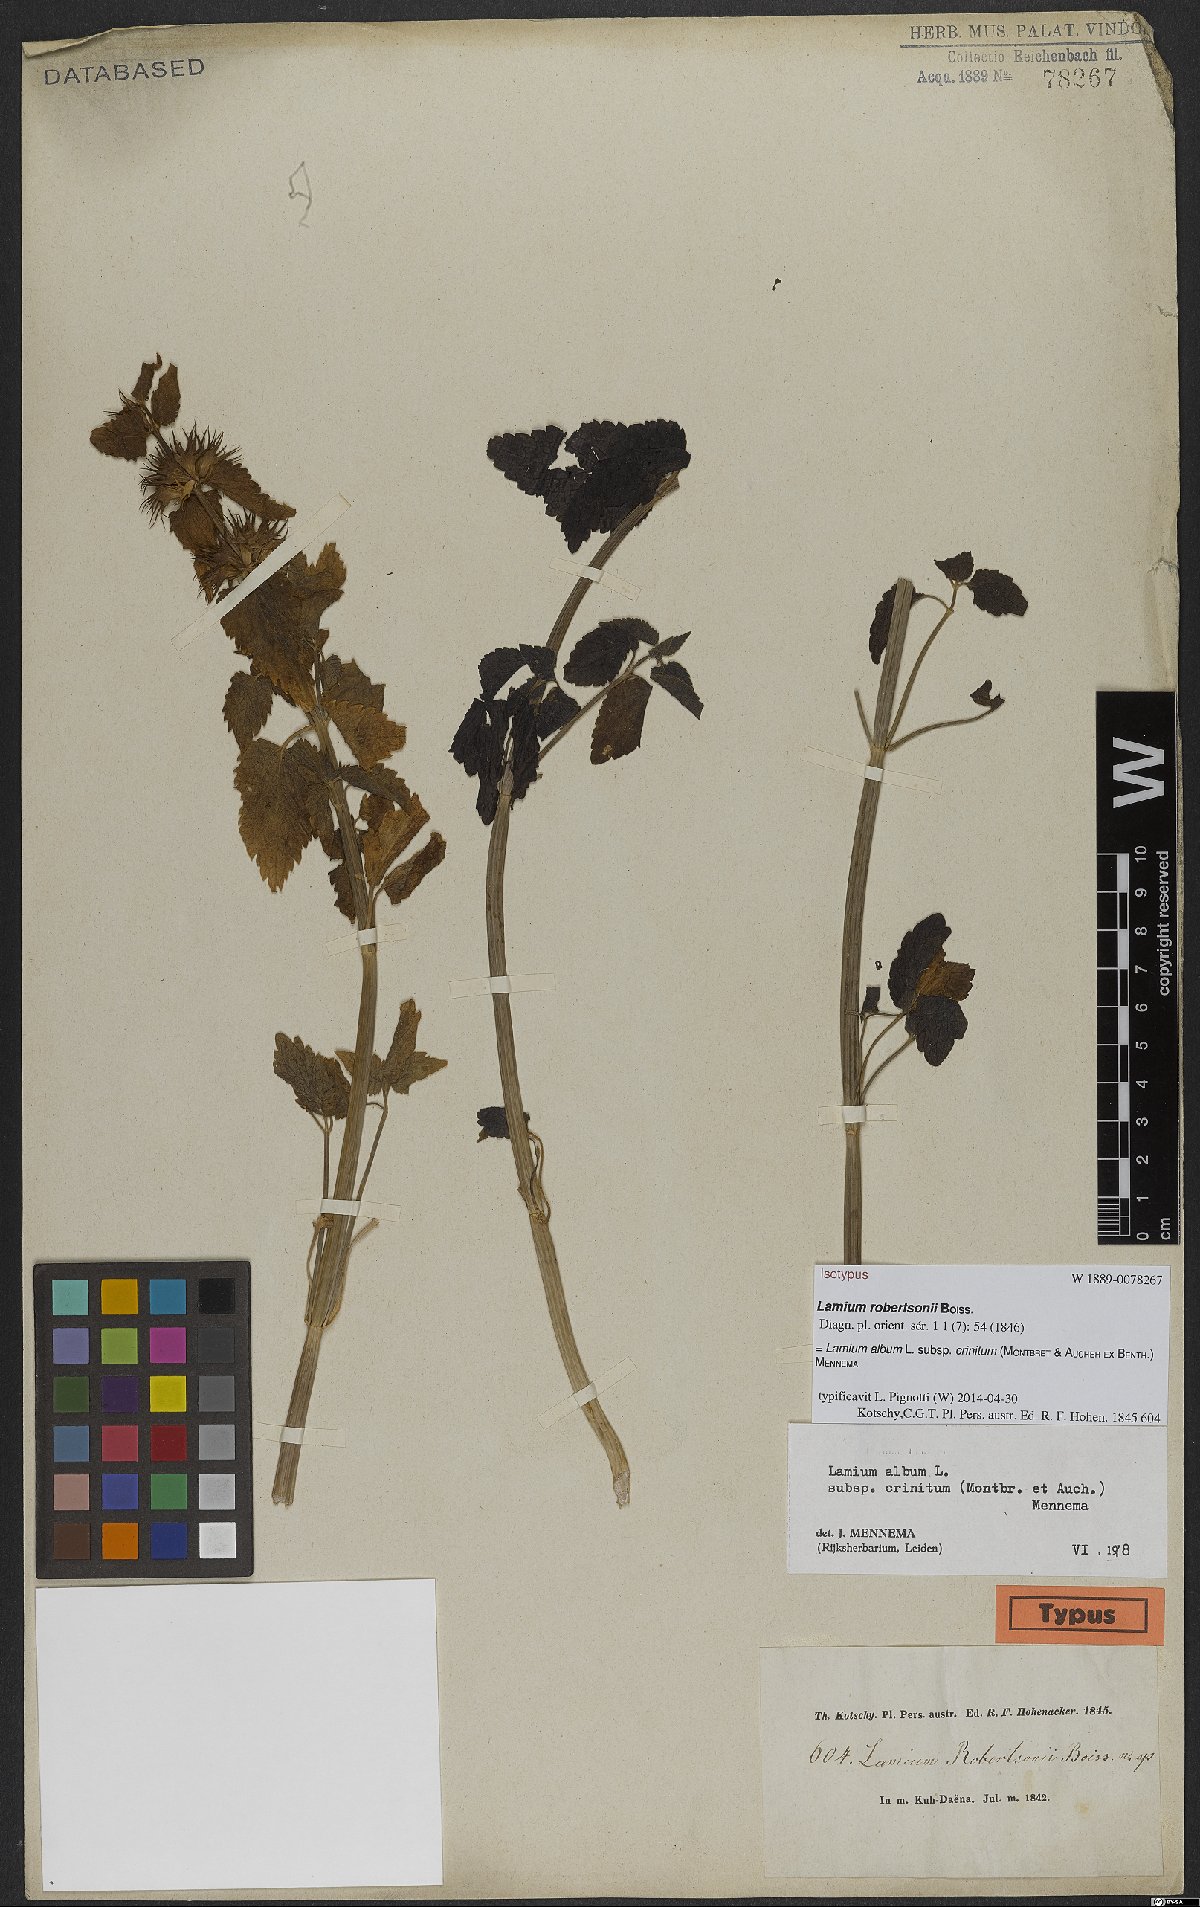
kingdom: Plantae
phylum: Tracheophyta
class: Magnoliopsida
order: Lamiales
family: Lamiaceae
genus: Lamium
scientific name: Lamium album
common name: White dead-nettle
